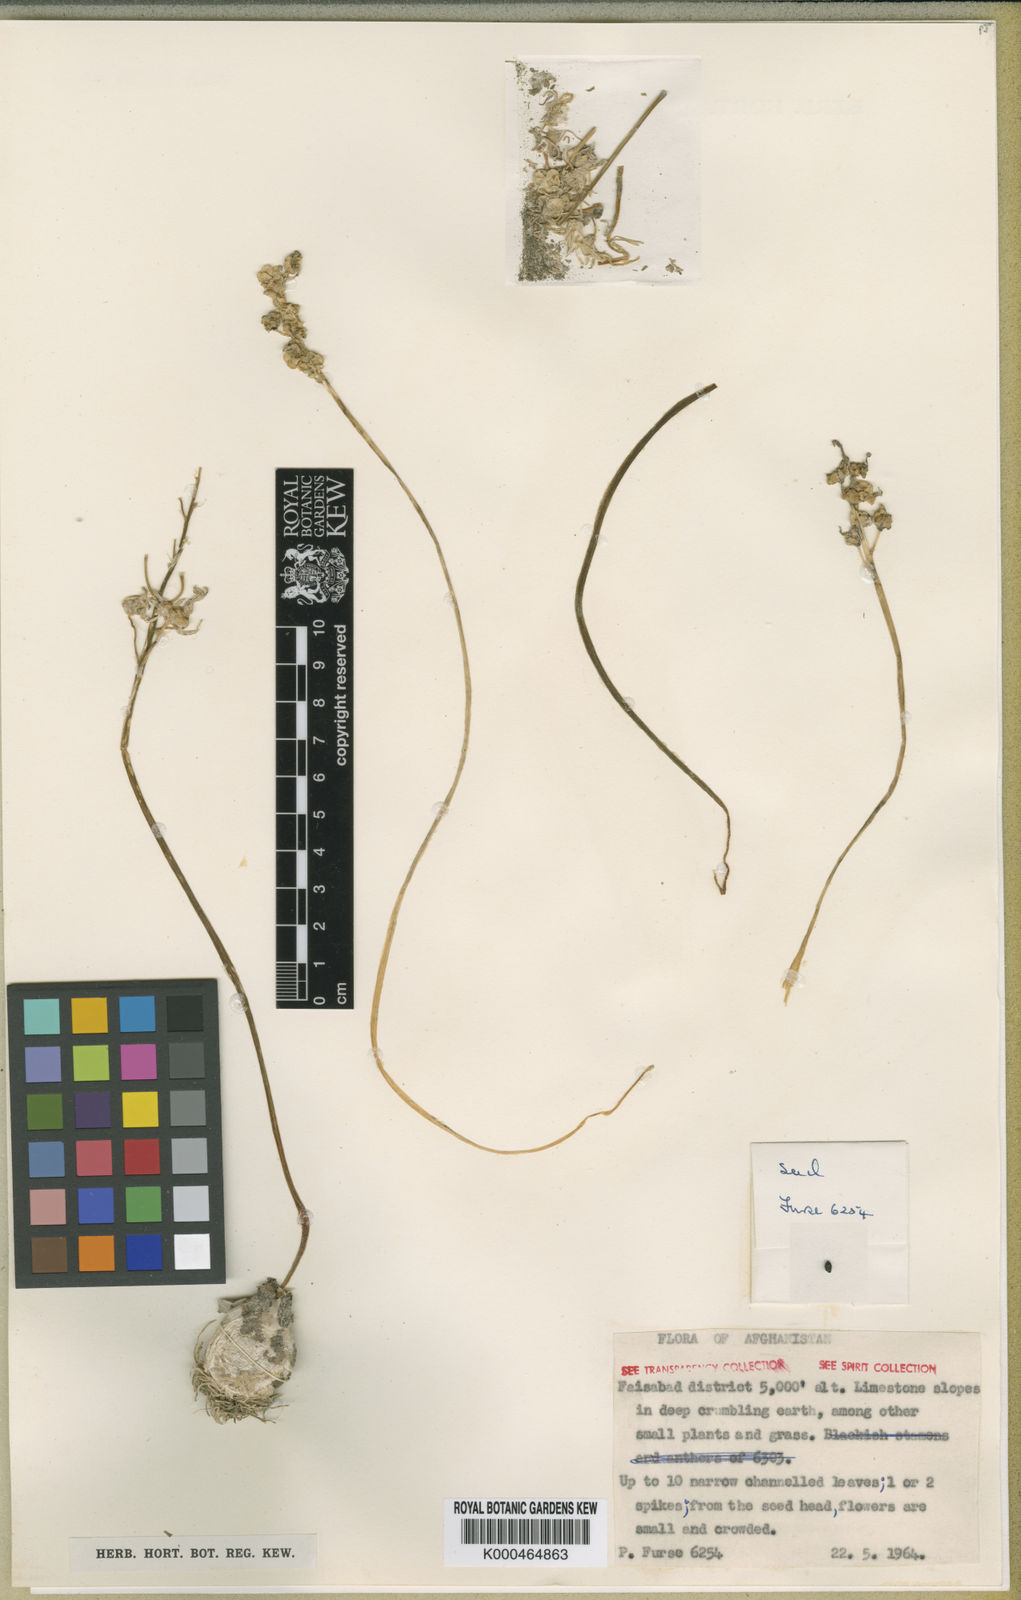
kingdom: Plantae
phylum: Tracheophyta
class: Liliopsida
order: Asparagales
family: Asparagaceae
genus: Fessia
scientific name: Fessia furseorum
